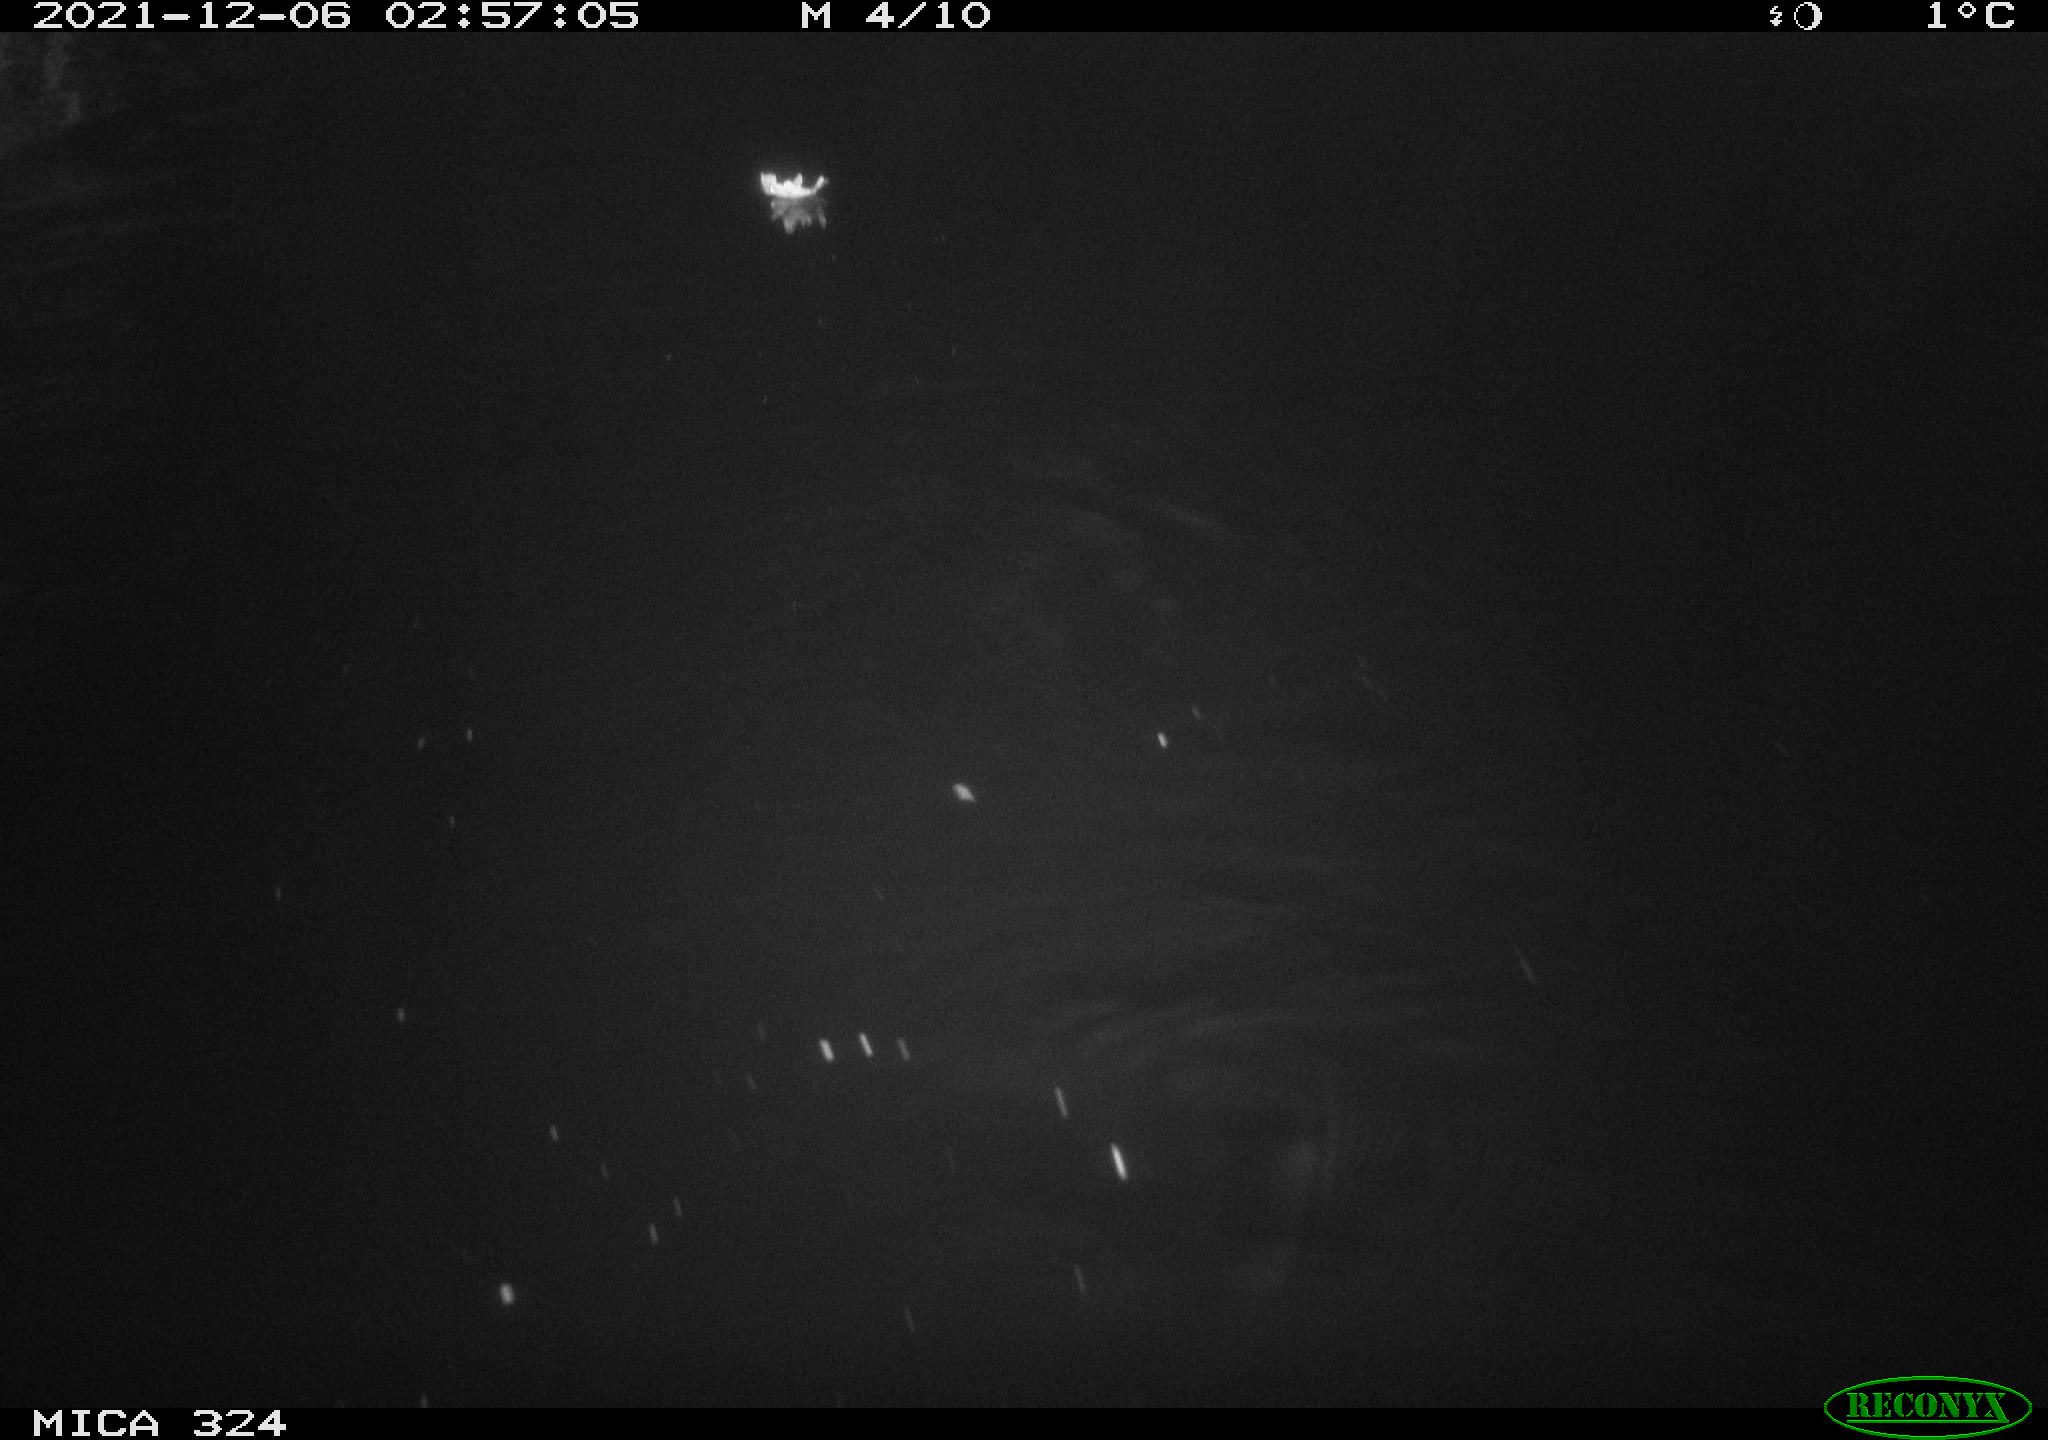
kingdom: Animalia
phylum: Chordata
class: Mammalia
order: Rodentia
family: Cricetidae
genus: Ondatra
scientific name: Ondatra zibethicus
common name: Muskrat
